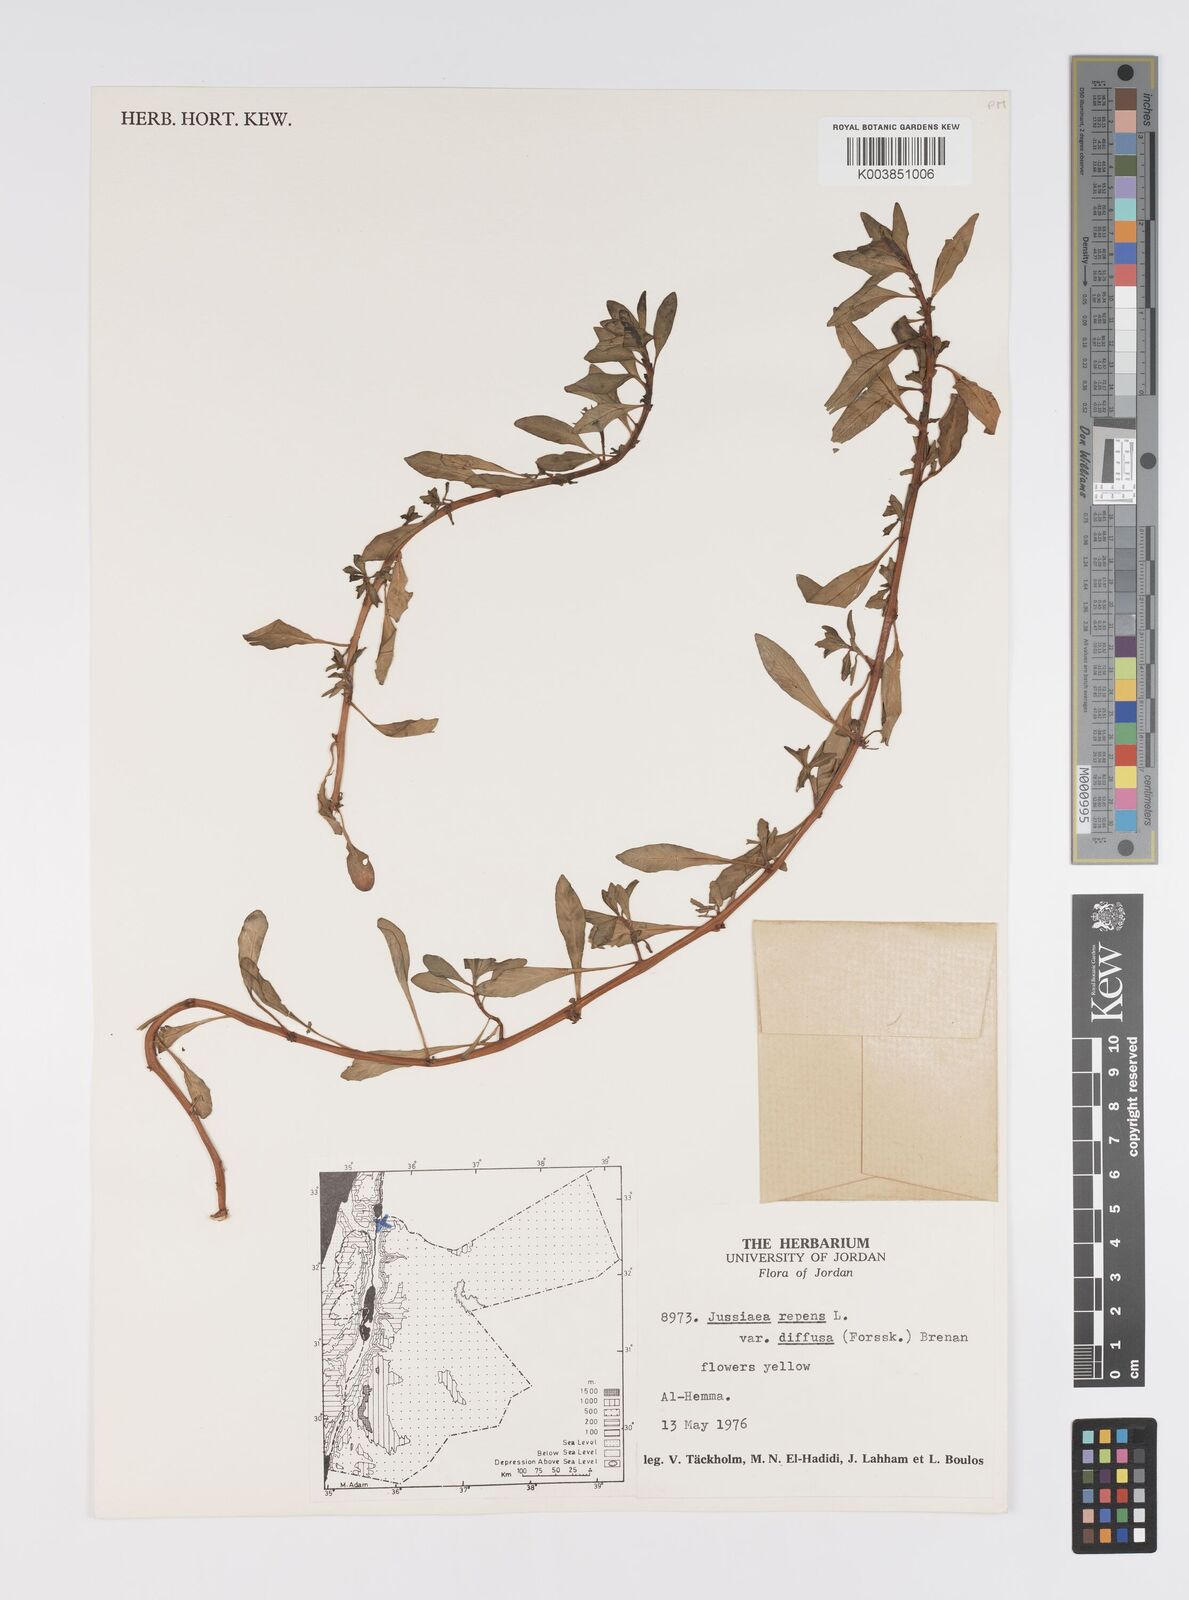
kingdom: Plantae
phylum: Tracheophyta
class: Magnoliopsida
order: Myrtales
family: Onagraceae
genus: Ludwigia
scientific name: Ludwigia adscendens
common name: Creeping water primrose
